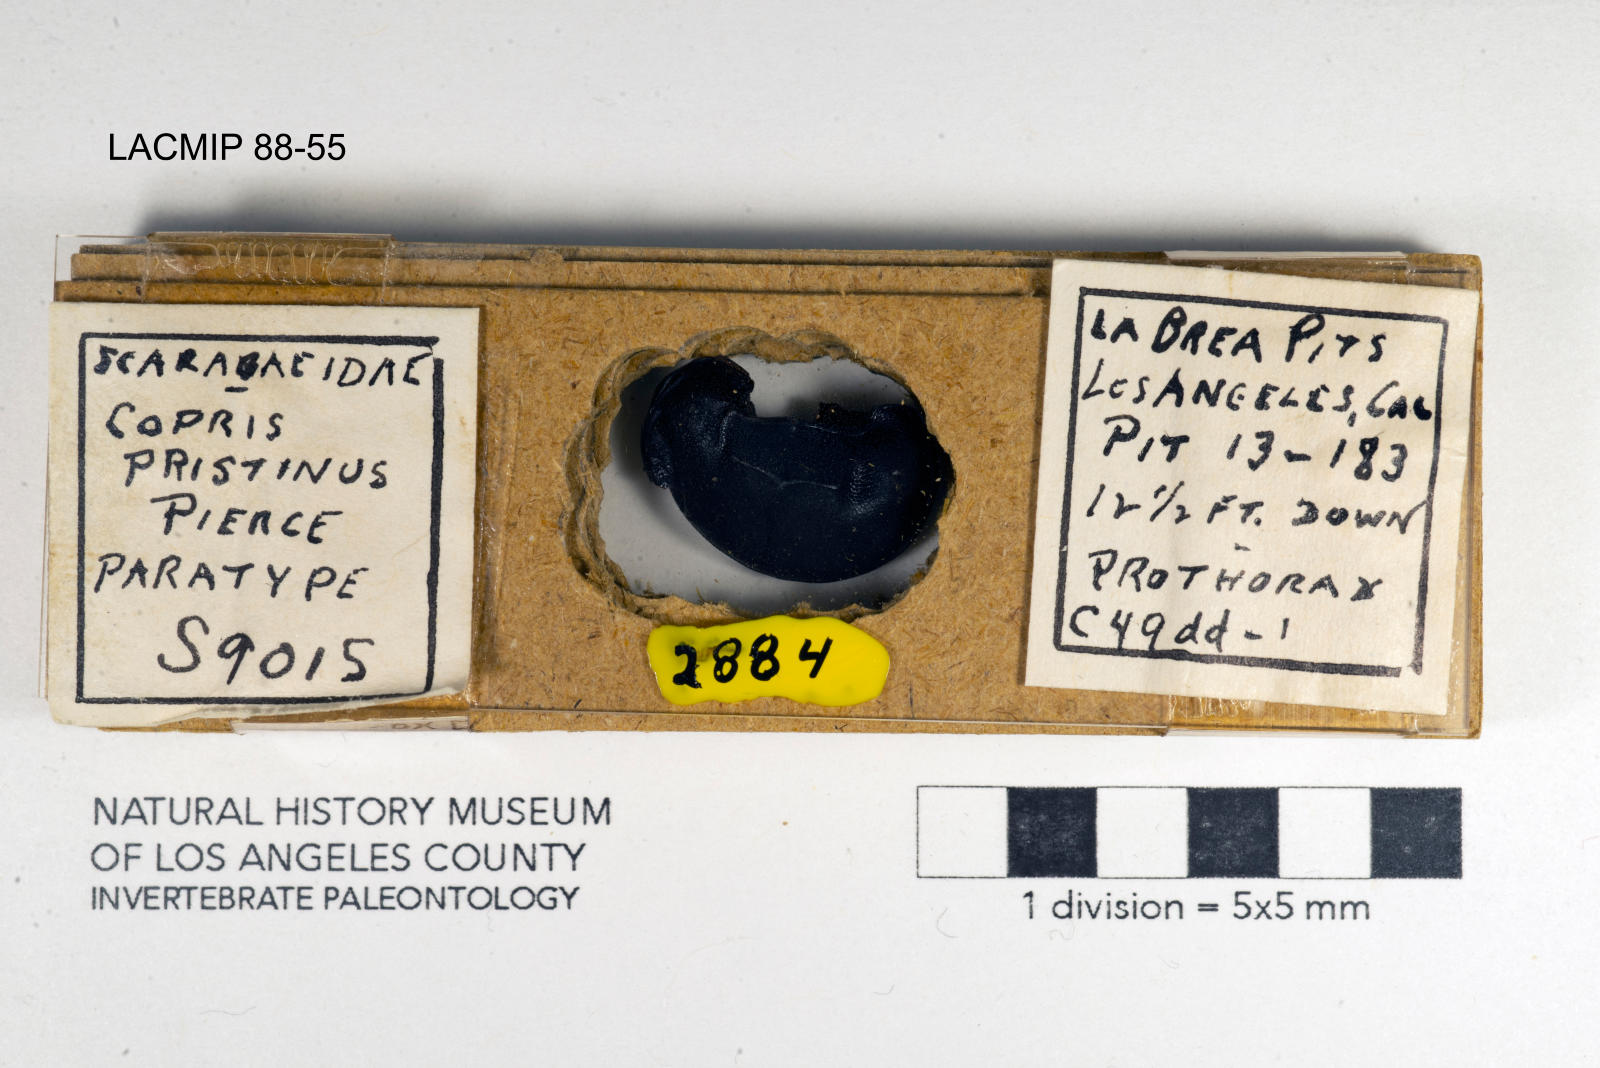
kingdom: Animalia
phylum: Arthropoda
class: Insecta
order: Coleoptera
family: Scarabaeidae
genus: Copris
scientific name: Copris pristinus
